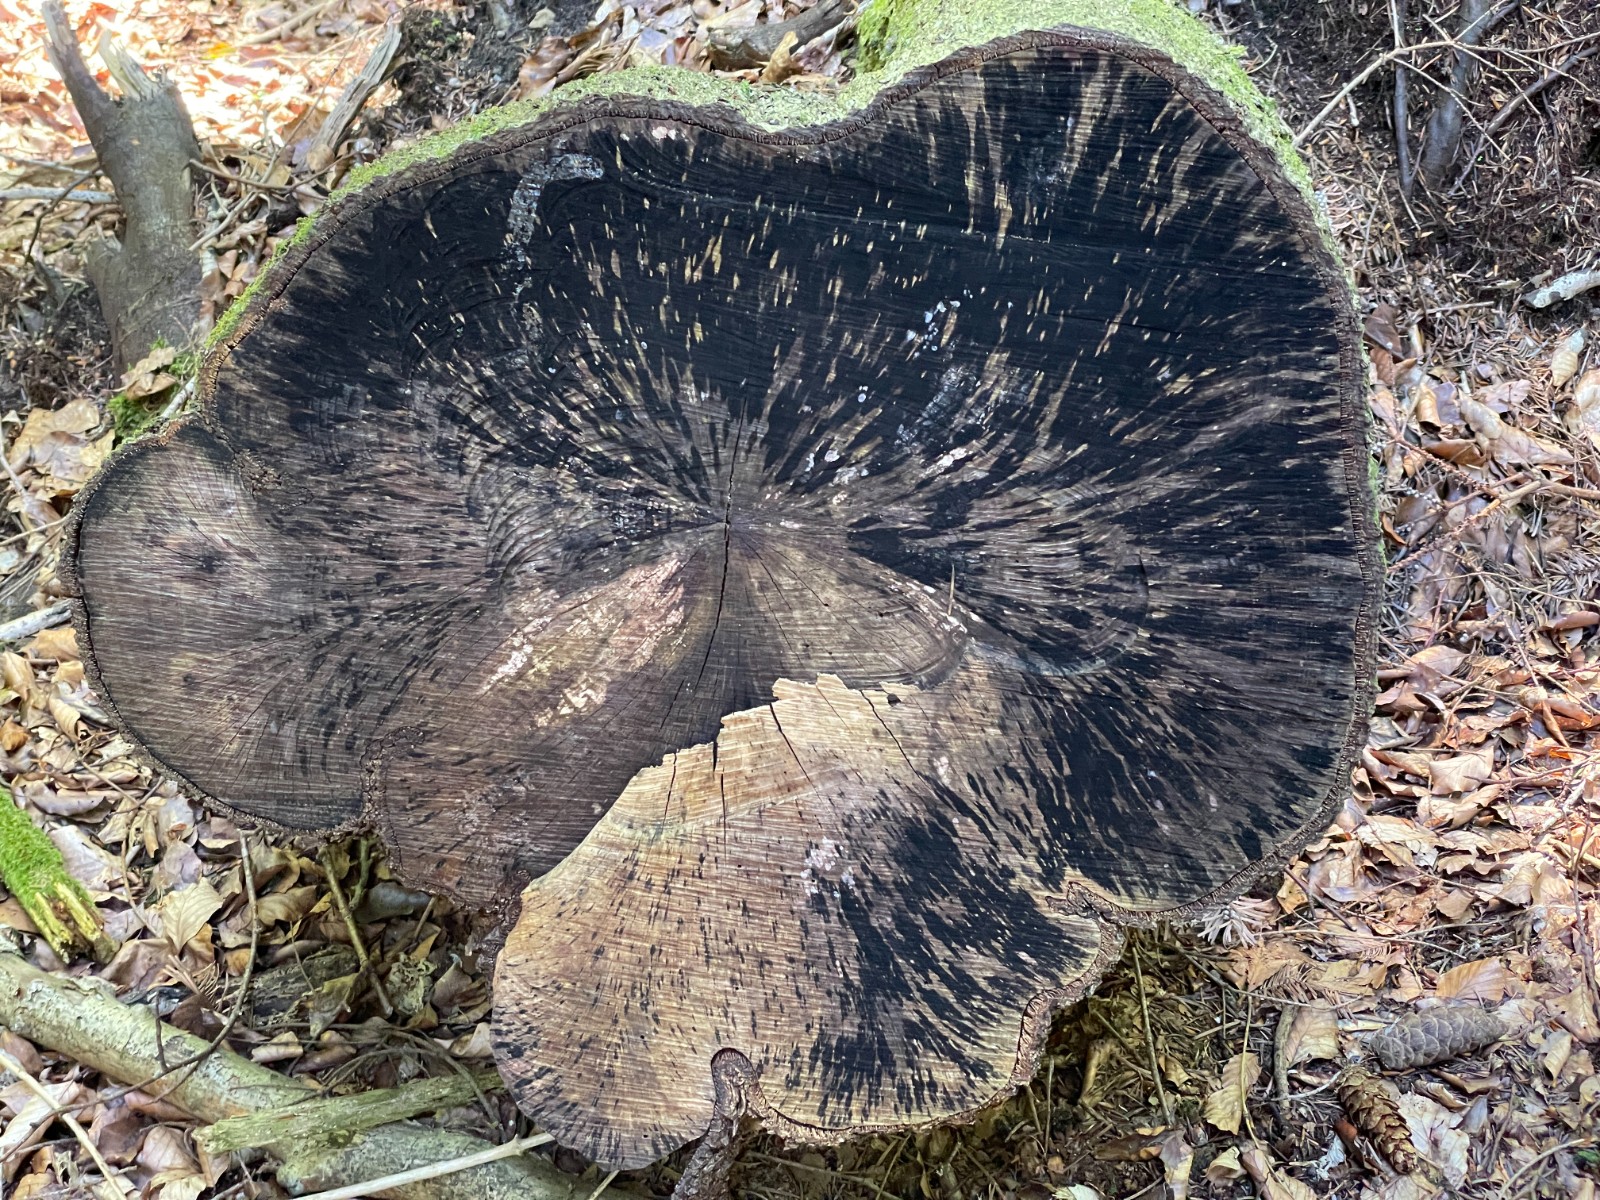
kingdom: Fungi
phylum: Ascomycota
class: Leotiomycetes
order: Helotiales
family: Helotiaceae
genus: Bispora
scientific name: Bispora pallescens
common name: måtte-snitskive
